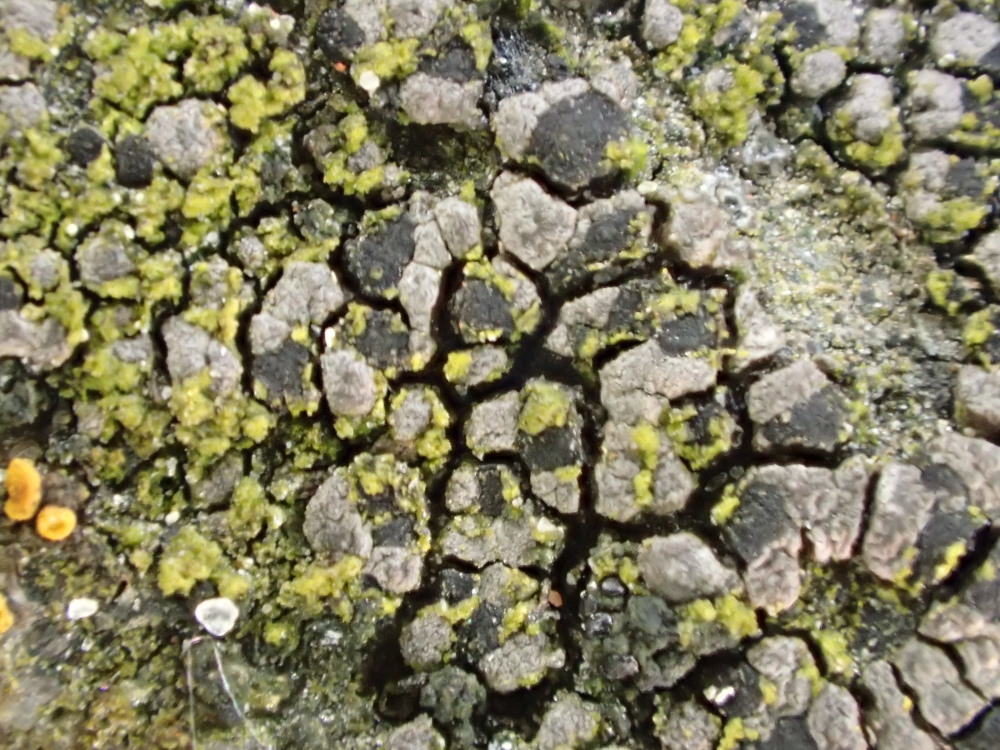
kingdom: Fungi
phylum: Ascomycota
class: Lecanoromycetes
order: Rhizocarpales
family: Rhizocarpaceae
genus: Rhizocarpon
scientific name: Rhizocarpon reductum
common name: mørk landkortlav
